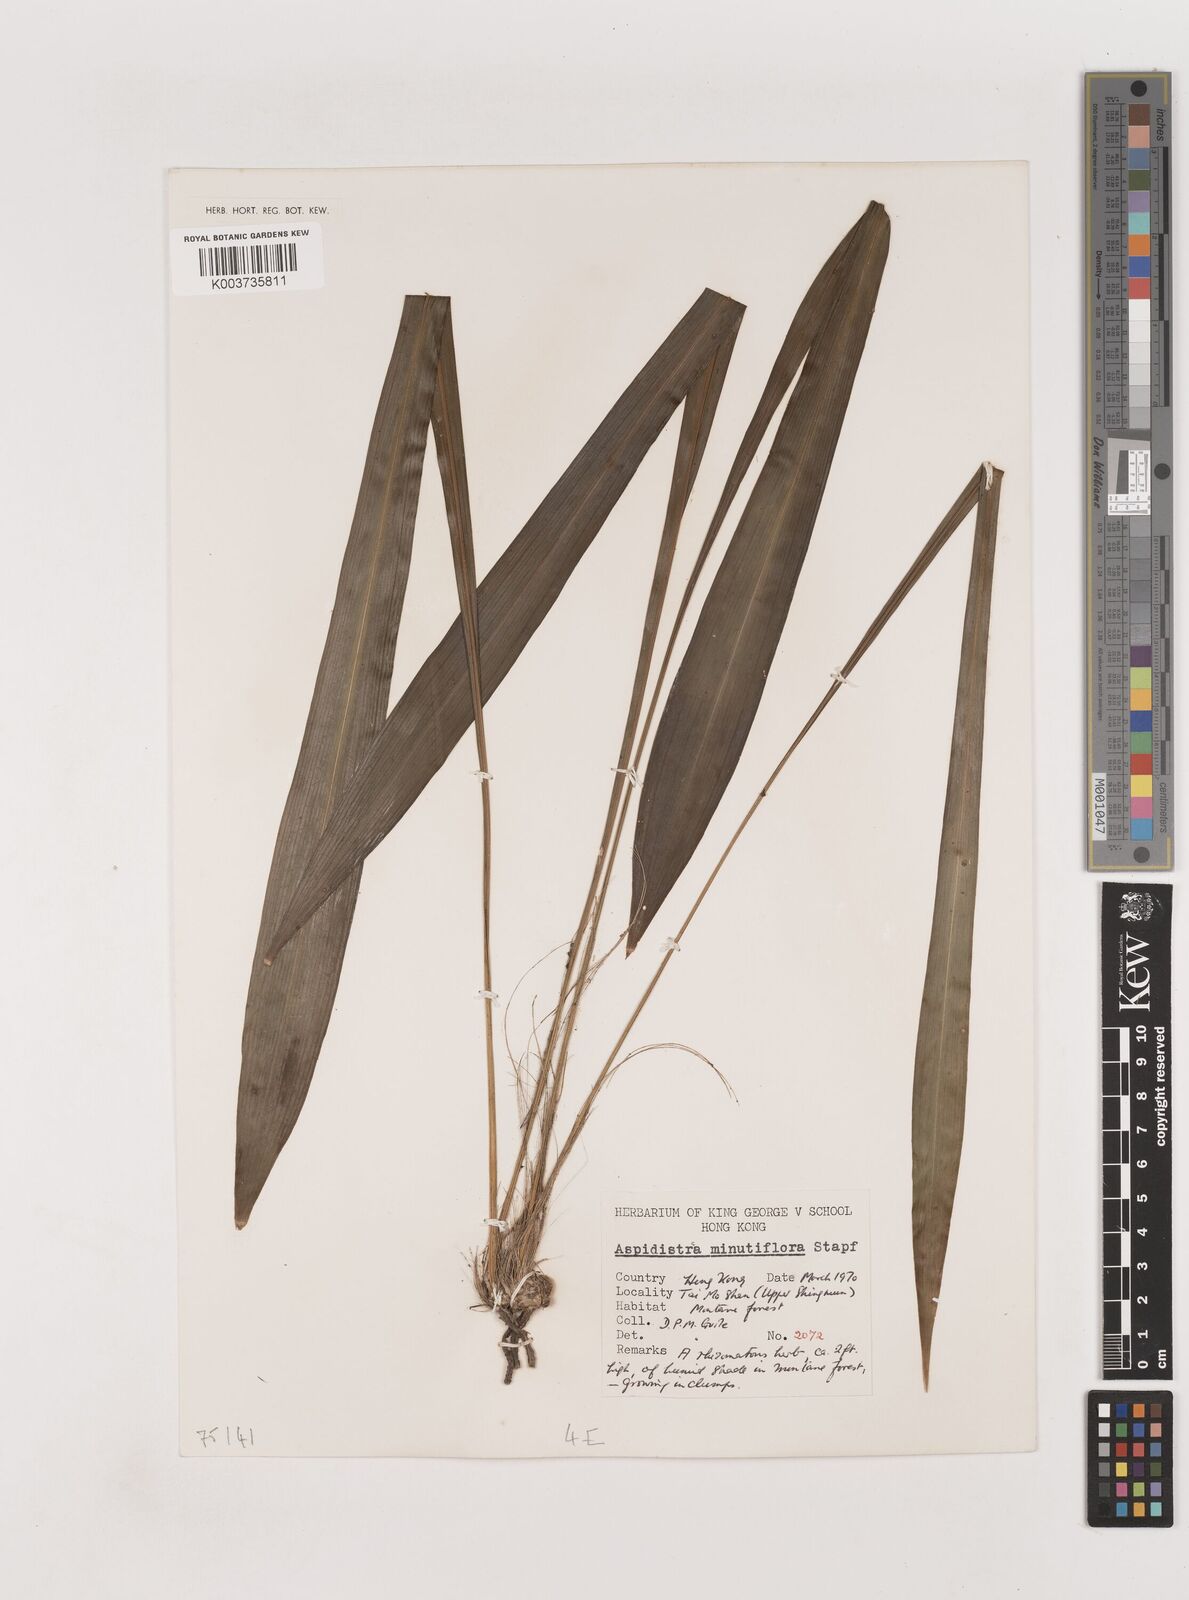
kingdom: Plantae
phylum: Tracheophyta
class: Liliopsida
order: Asparagales
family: Asparagaceae
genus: Aspidistra
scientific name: Aspidistra minutiflora
